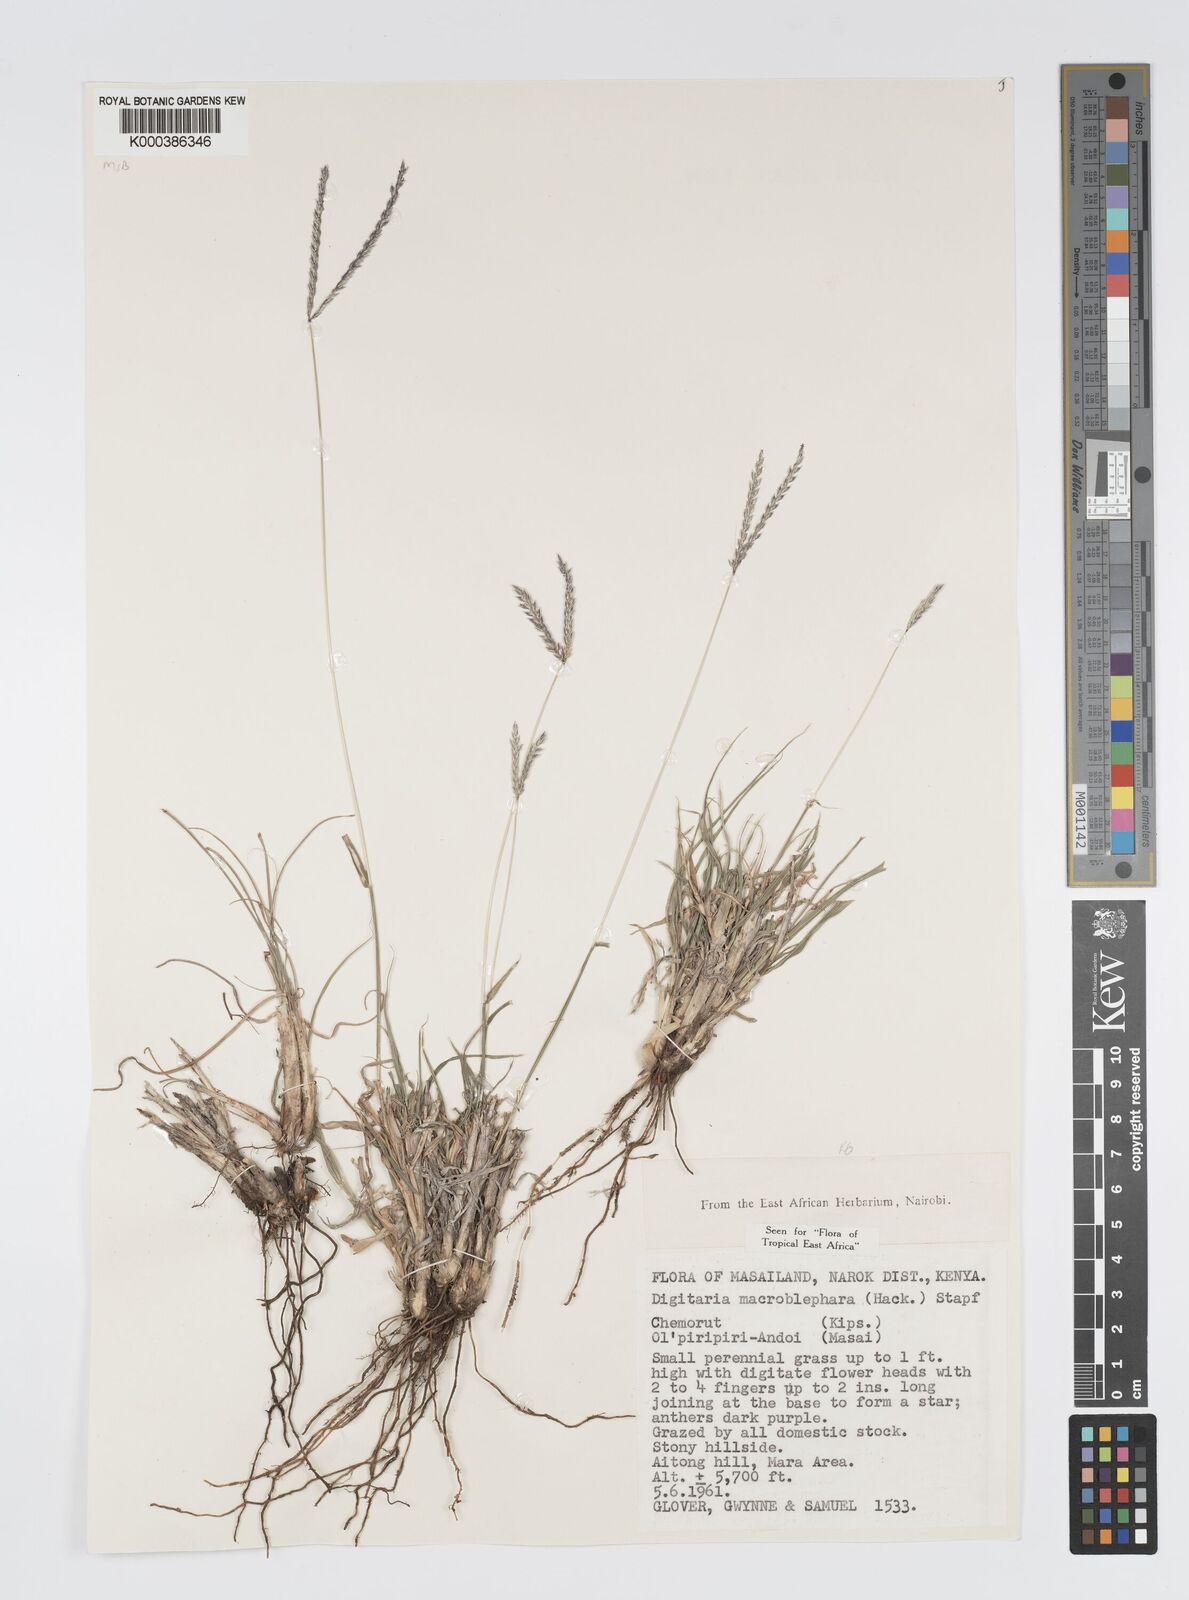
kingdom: Plantae
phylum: Tracheophyta
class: Liliopsida
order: Poales
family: Poaceae
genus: Digitaria
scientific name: Digitaria macroblephara
